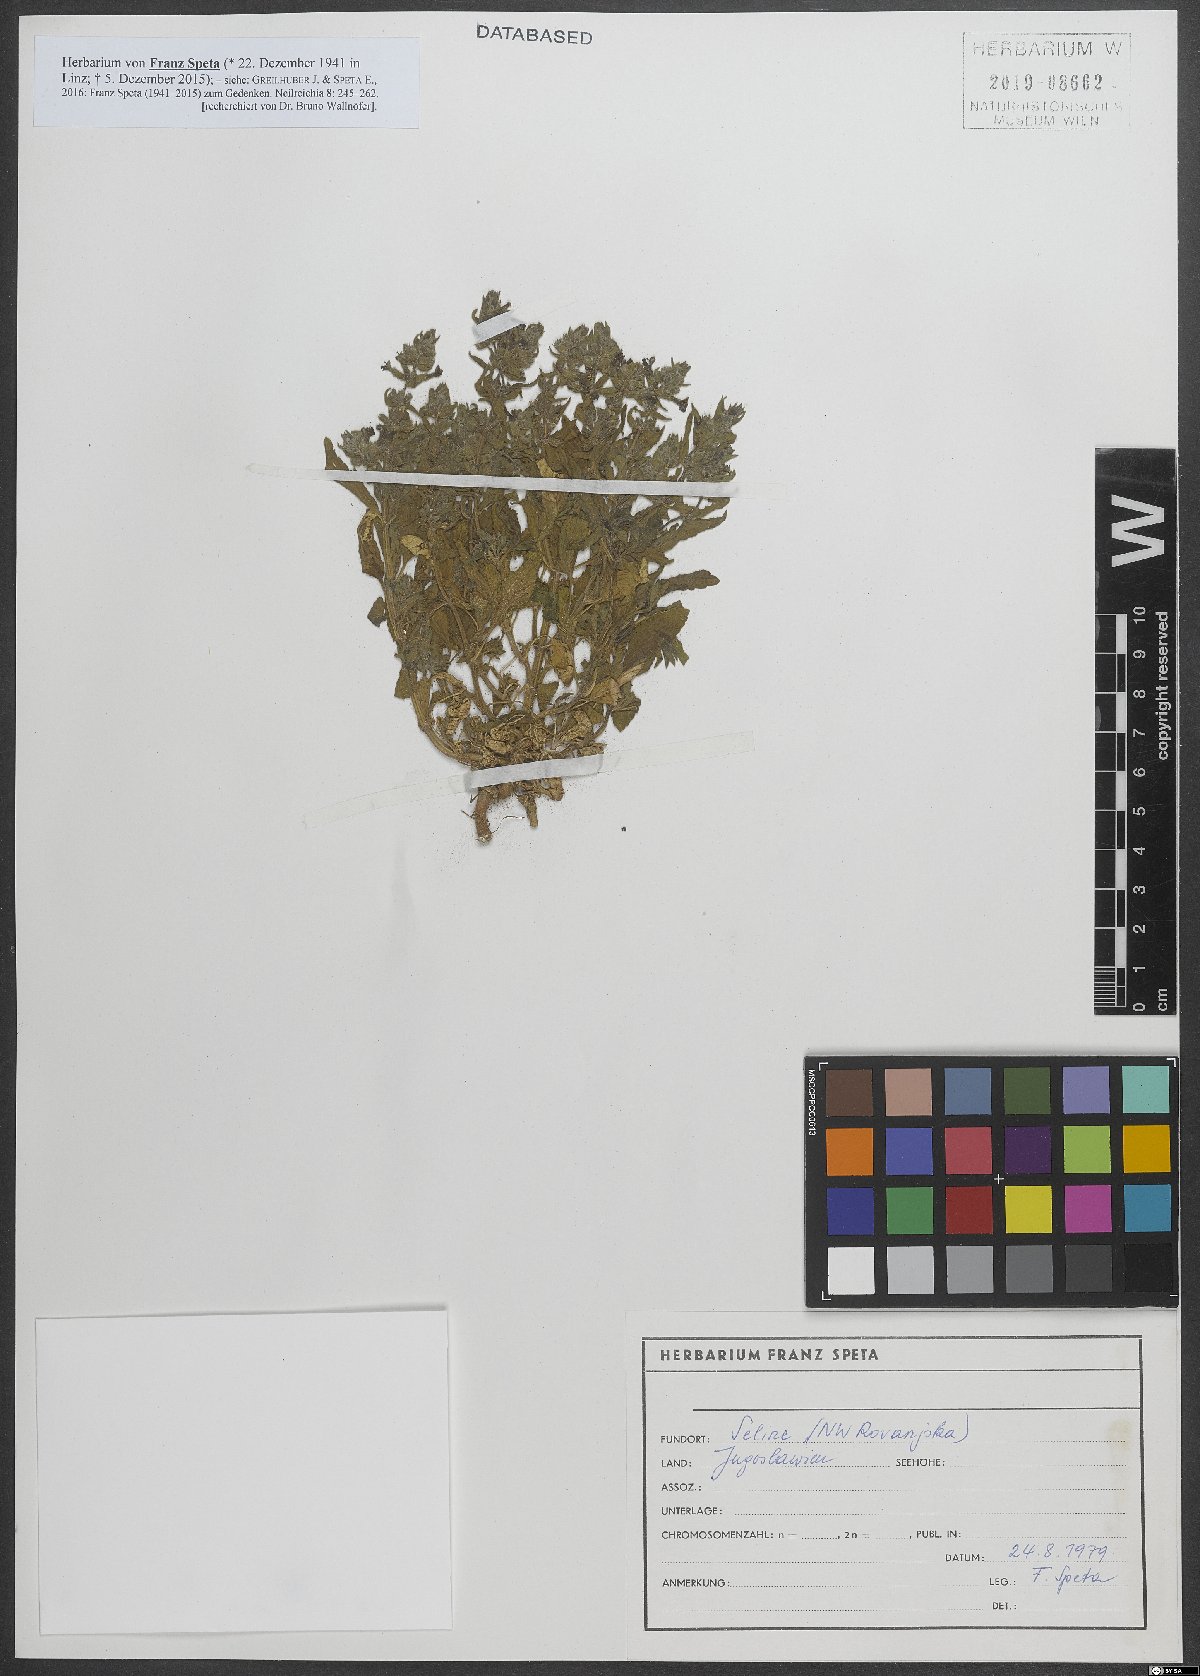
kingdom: Plantae
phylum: Tracheophyta
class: Magnoliopsida
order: Lamiales
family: Lamiaceae
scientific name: Lamiaceae
